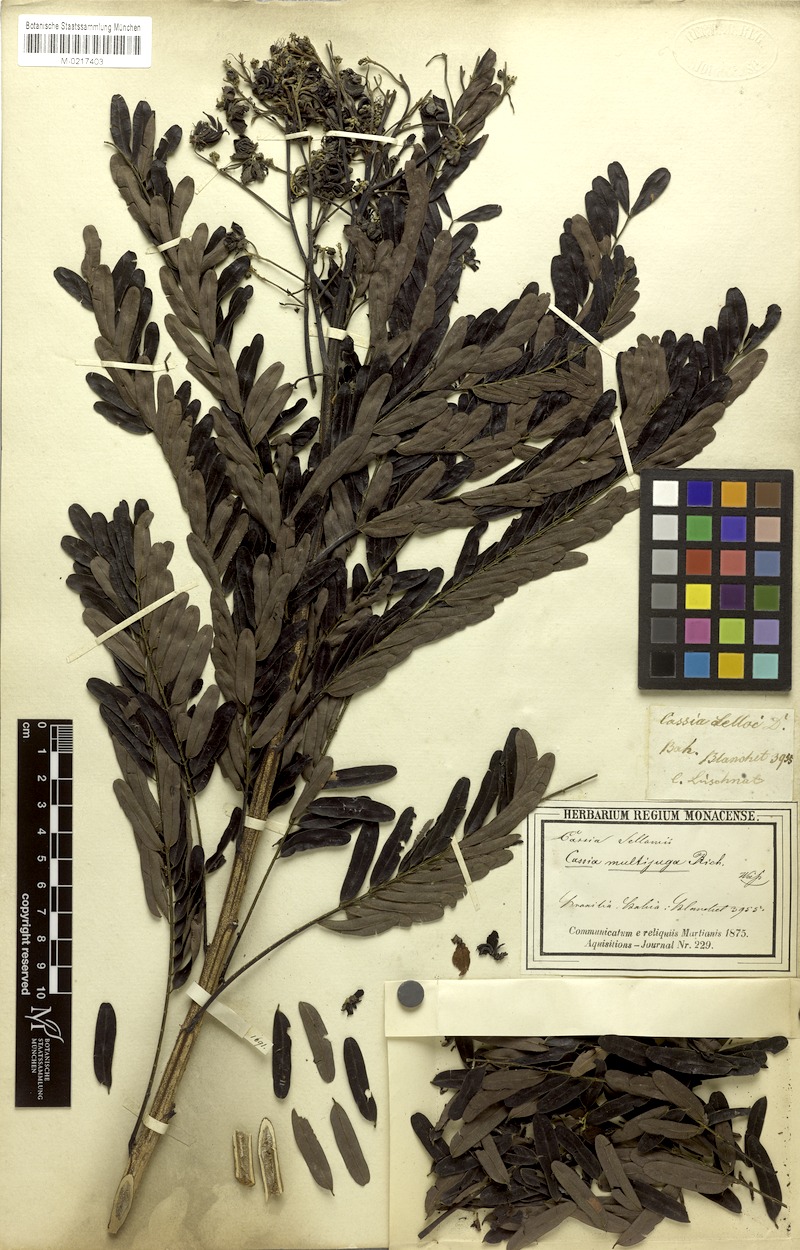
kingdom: Plantae
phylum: Tracheophyta
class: Magnoliopsida
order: Fabales
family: Fabaceae
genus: Senna
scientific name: Senna multijuga
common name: False sicklepod
